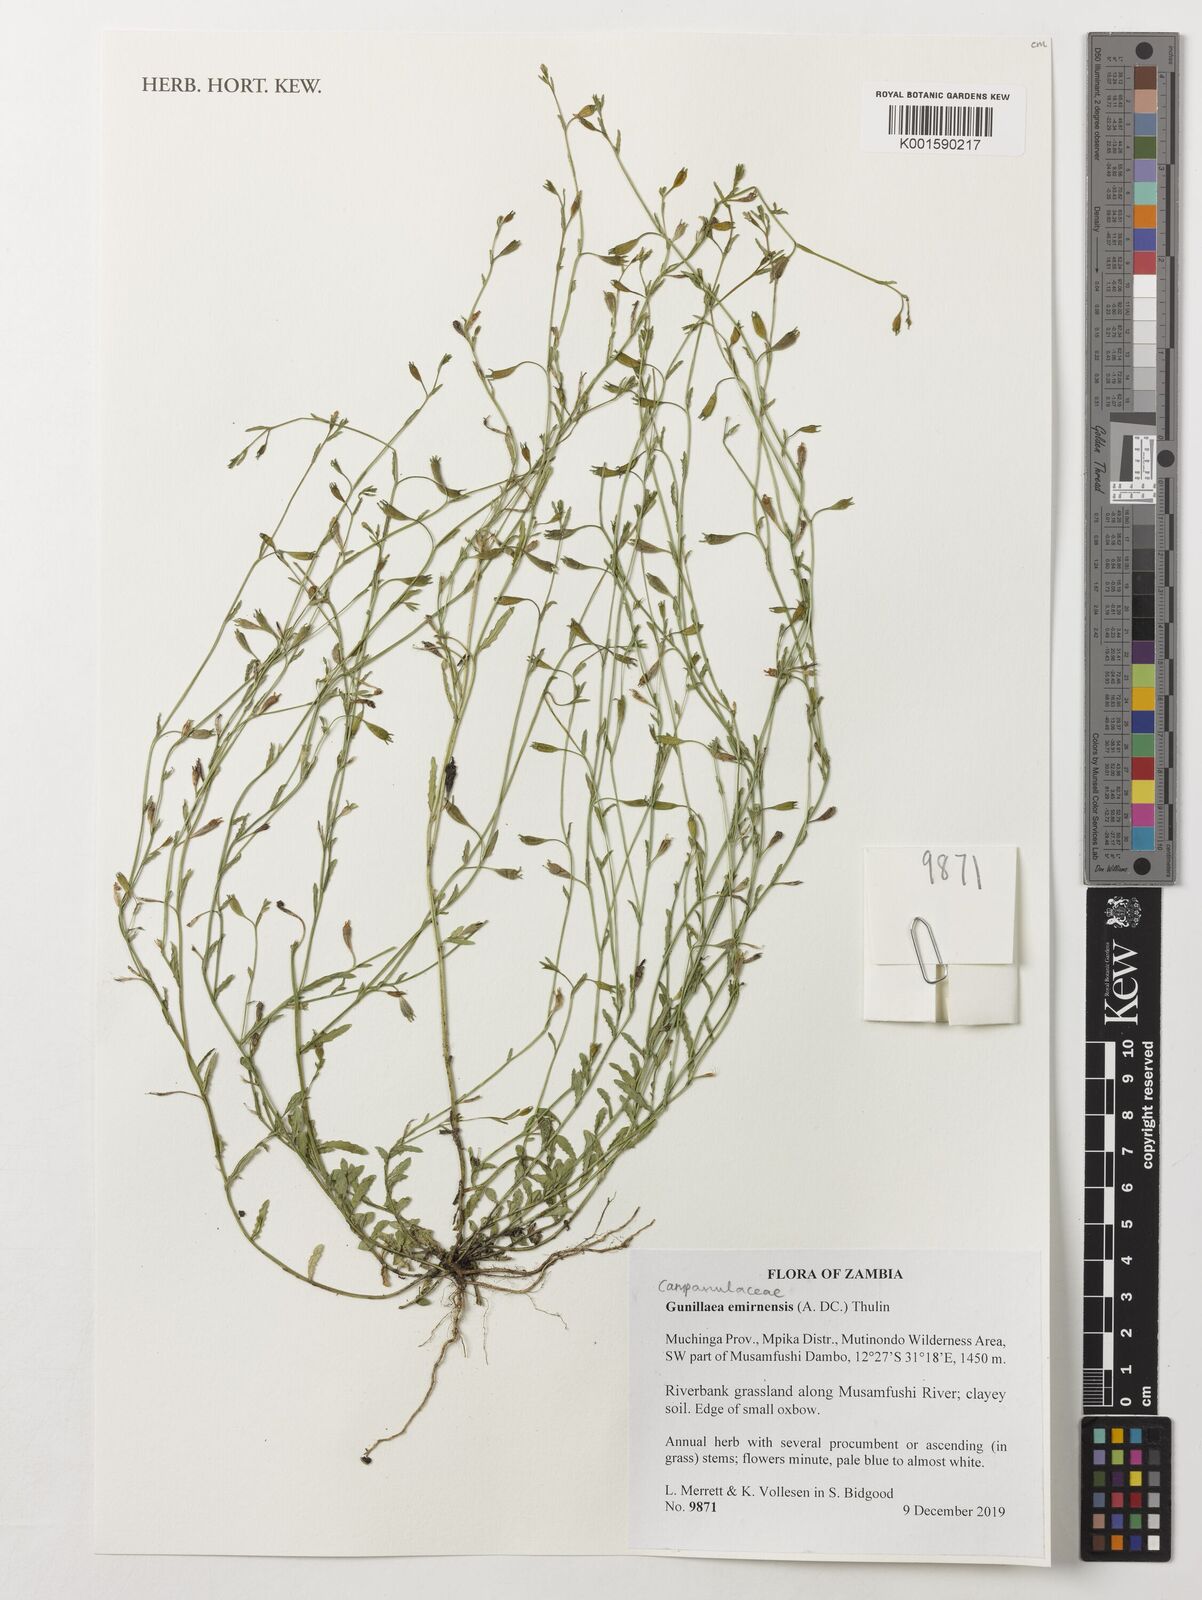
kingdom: Plantae
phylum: Tracheophyta
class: Magnoliopsida
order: Asterales
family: Campanulaceae
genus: Gunillaea
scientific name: Gunillaea emirnensis
